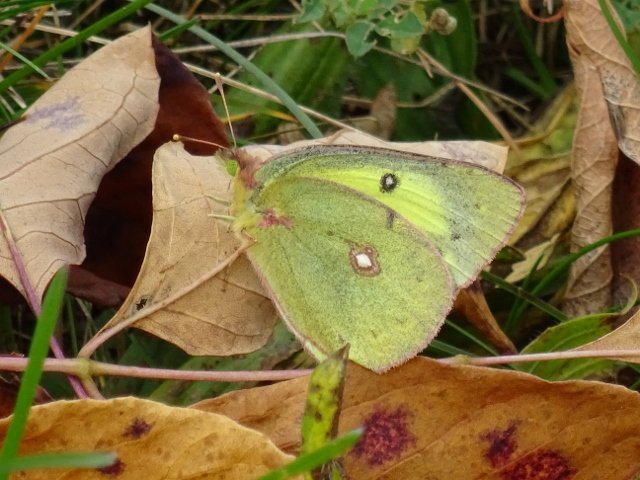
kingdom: Animalia
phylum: Arthropoda
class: Insecta
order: Lepidoptera
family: Pieridae
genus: Colias
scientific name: Colias philodice
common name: Clouded Sulphur
